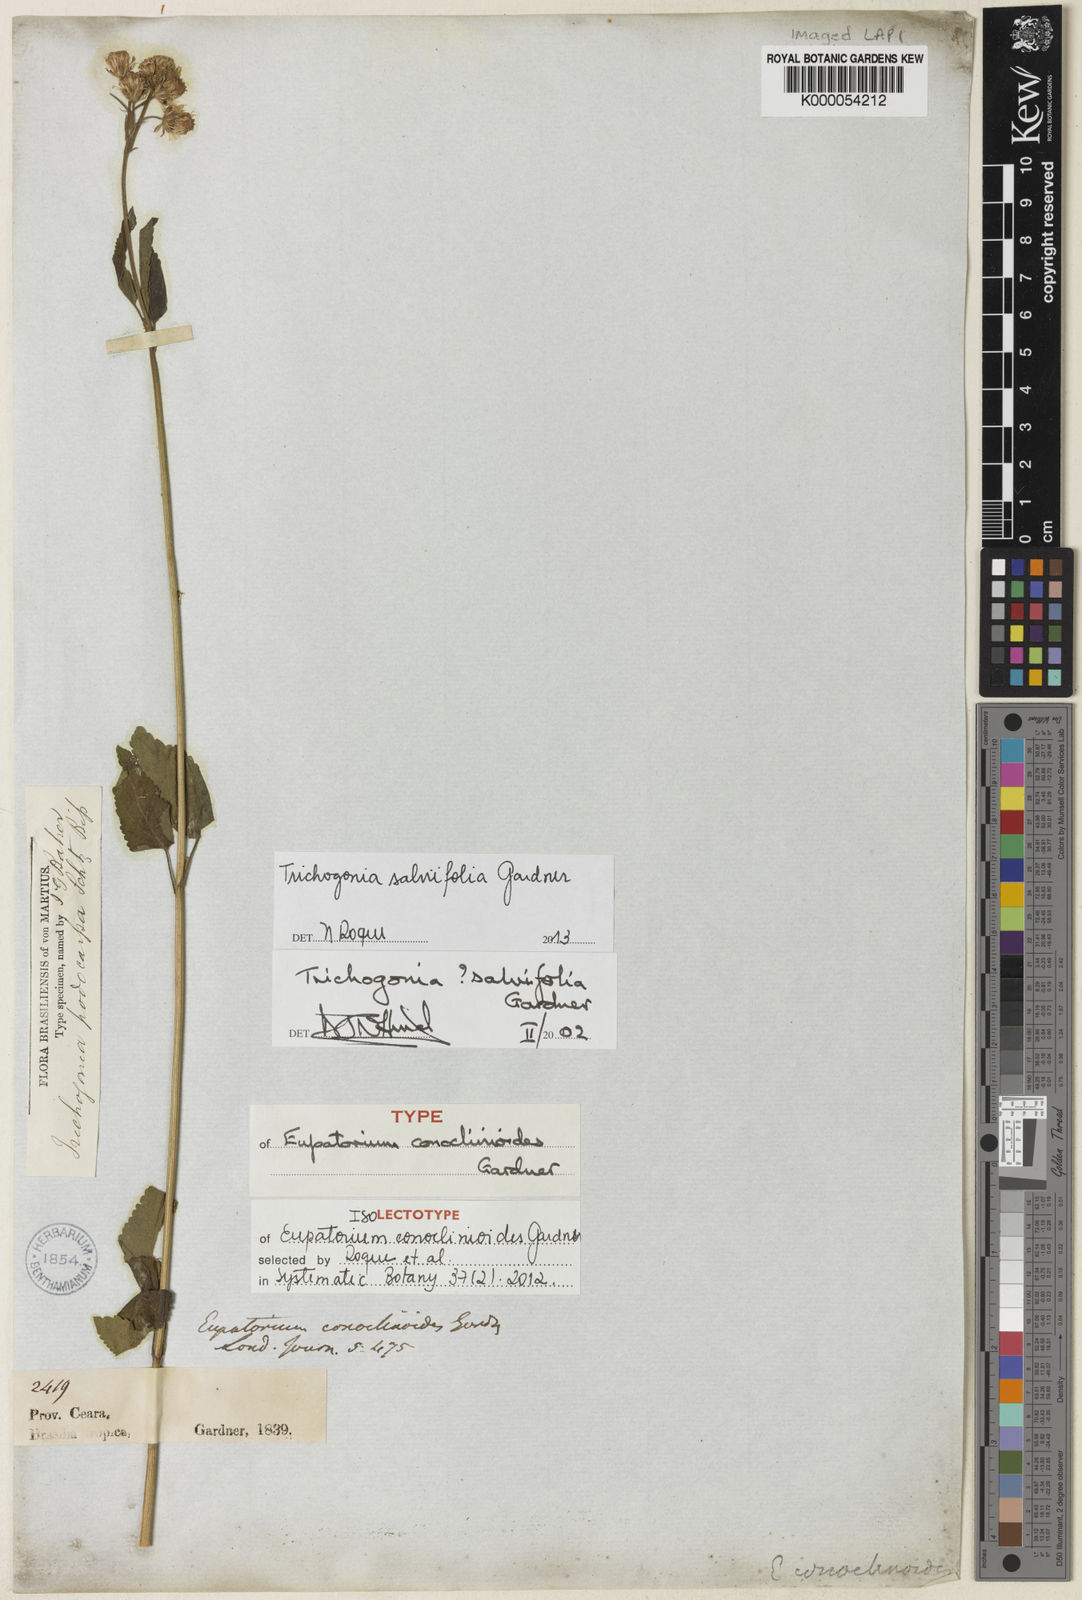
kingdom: Plantae
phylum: Tracheophyta
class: Magnoliopsida
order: Asterales
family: Asteraceae
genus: Trichogonia
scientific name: Trichogonia salviifolia
